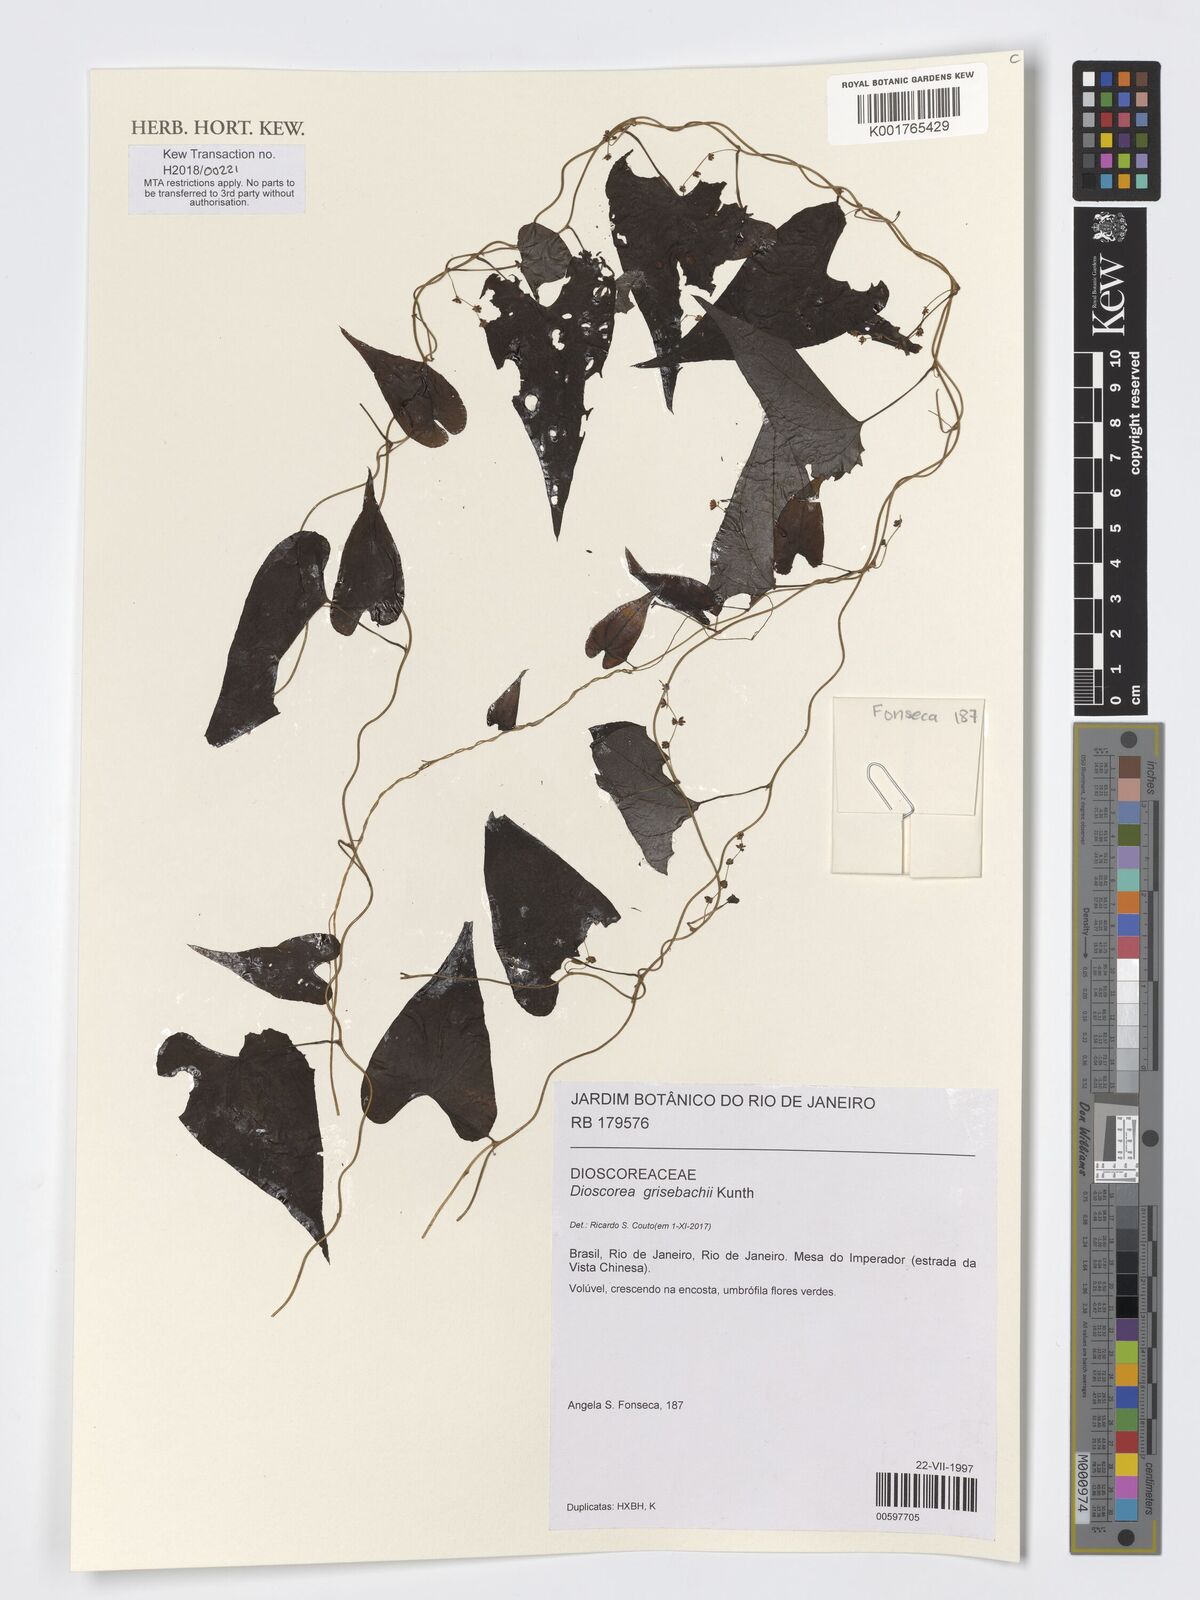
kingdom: Plantae
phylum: Tracheophyta
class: Liliopsida
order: Dioscoreales
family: Dioscoreaceae
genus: Dioscorea
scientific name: Dioscorea grisebachii
